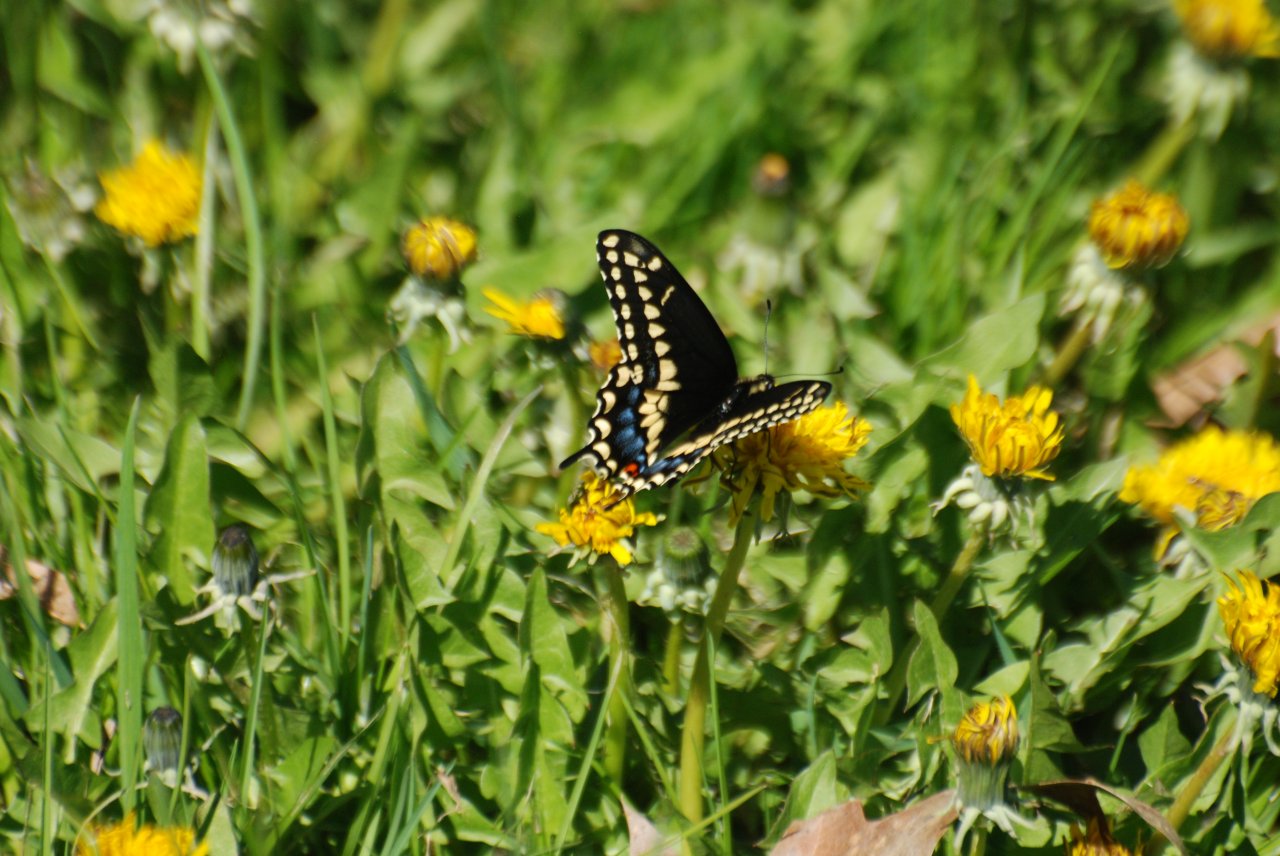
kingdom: Animalia
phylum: Arthropoda
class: Insecta
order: Lepidoptera
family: Papilionidae
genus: Papilio
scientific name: Papilio polyxenes
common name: Black Swallowtail
